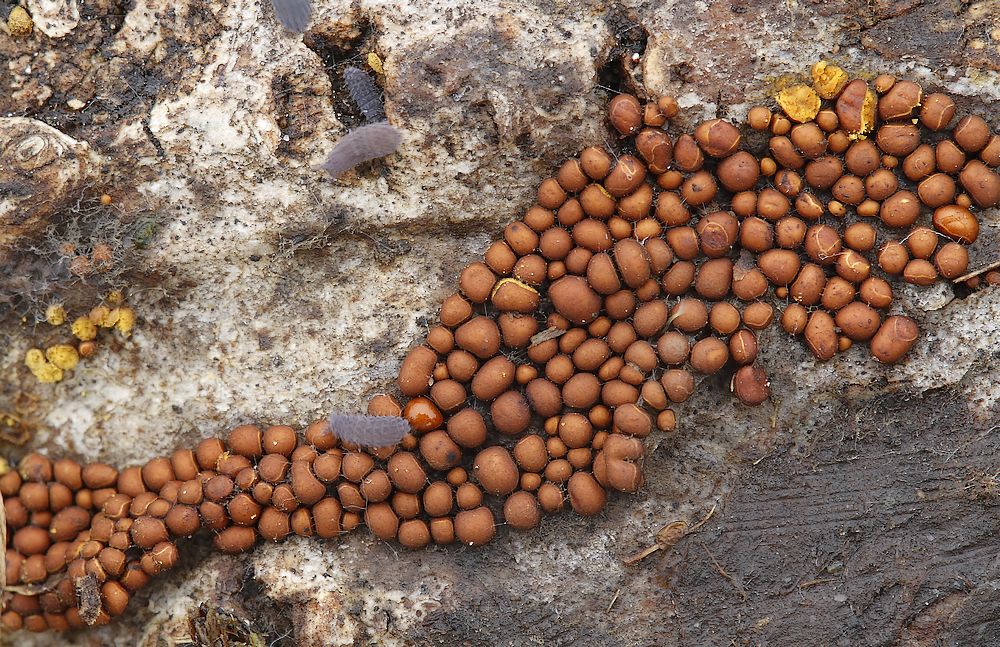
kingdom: Protozoa
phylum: Mycetozoa
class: Myxomycetes
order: Trichiales
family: Trichiaceae
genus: Perichaena
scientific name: Perichaena corticalis
